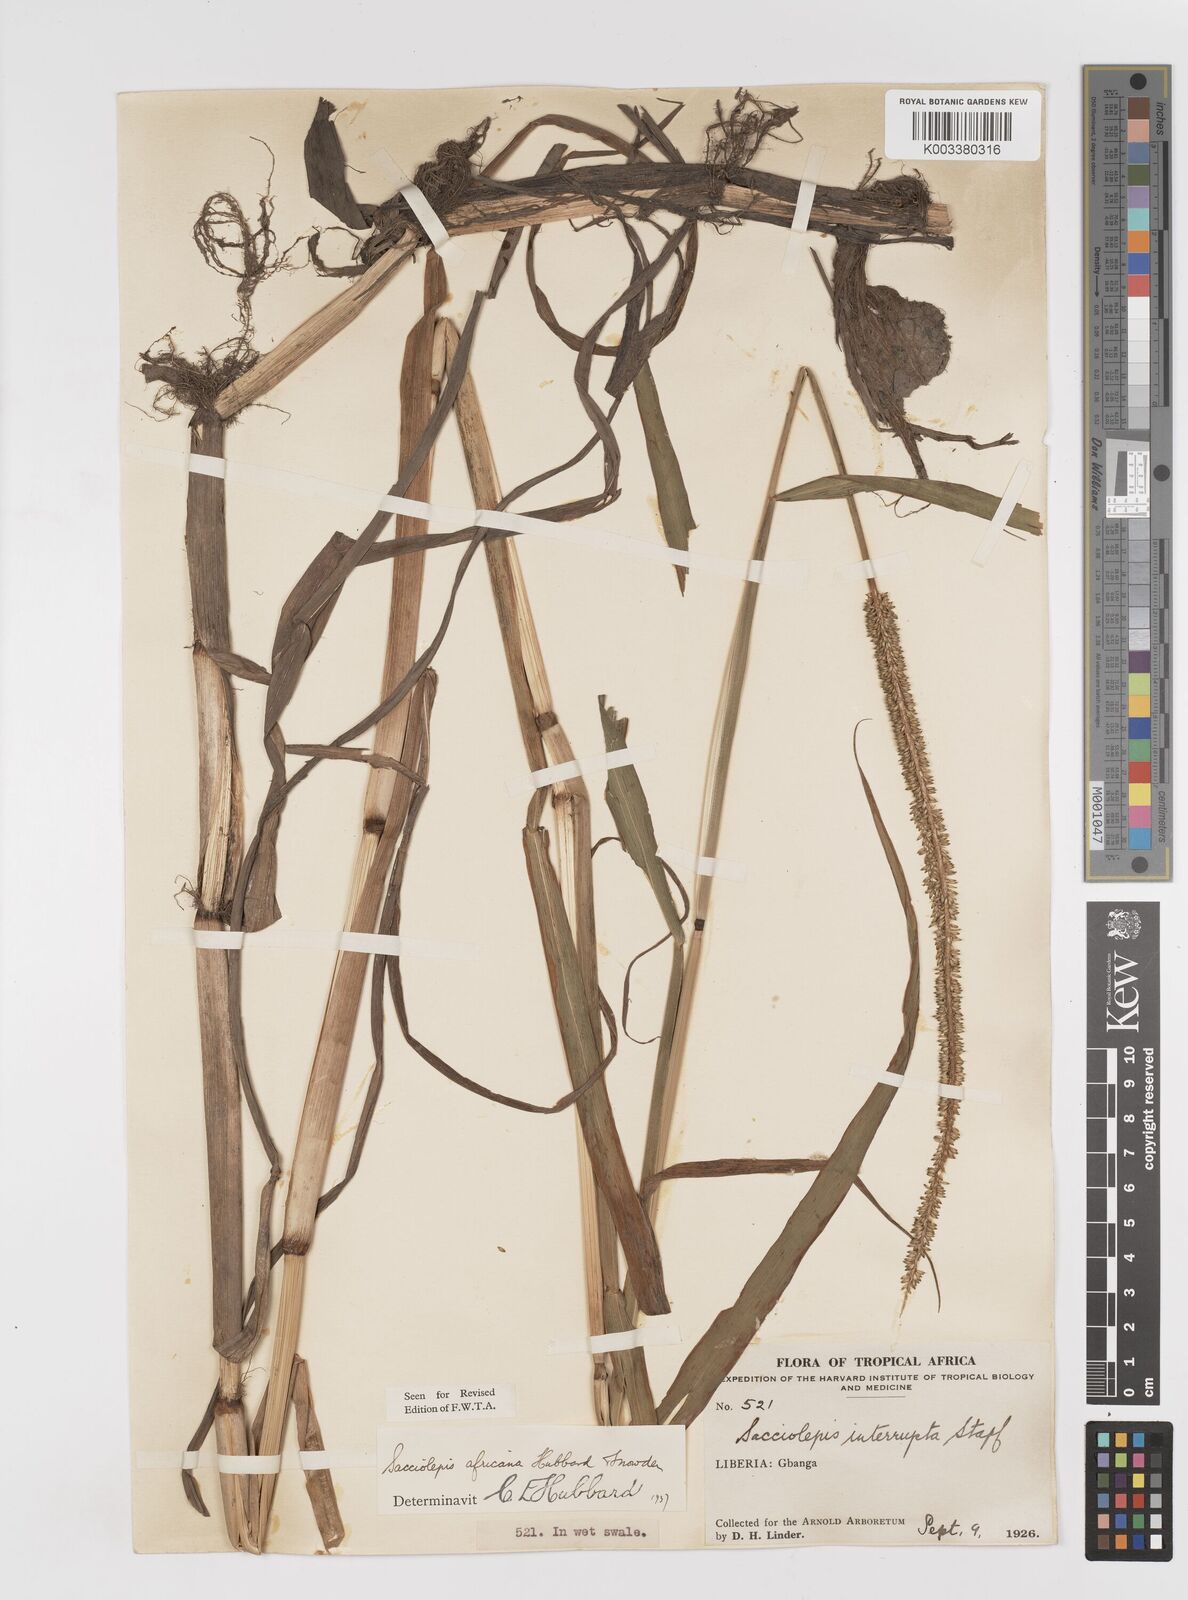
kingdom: Plantae
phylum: Tracheophyta
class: Liliopsida
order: Poales
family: Poaceae
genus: Sacciolepis
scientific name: Sacciolepis africana
